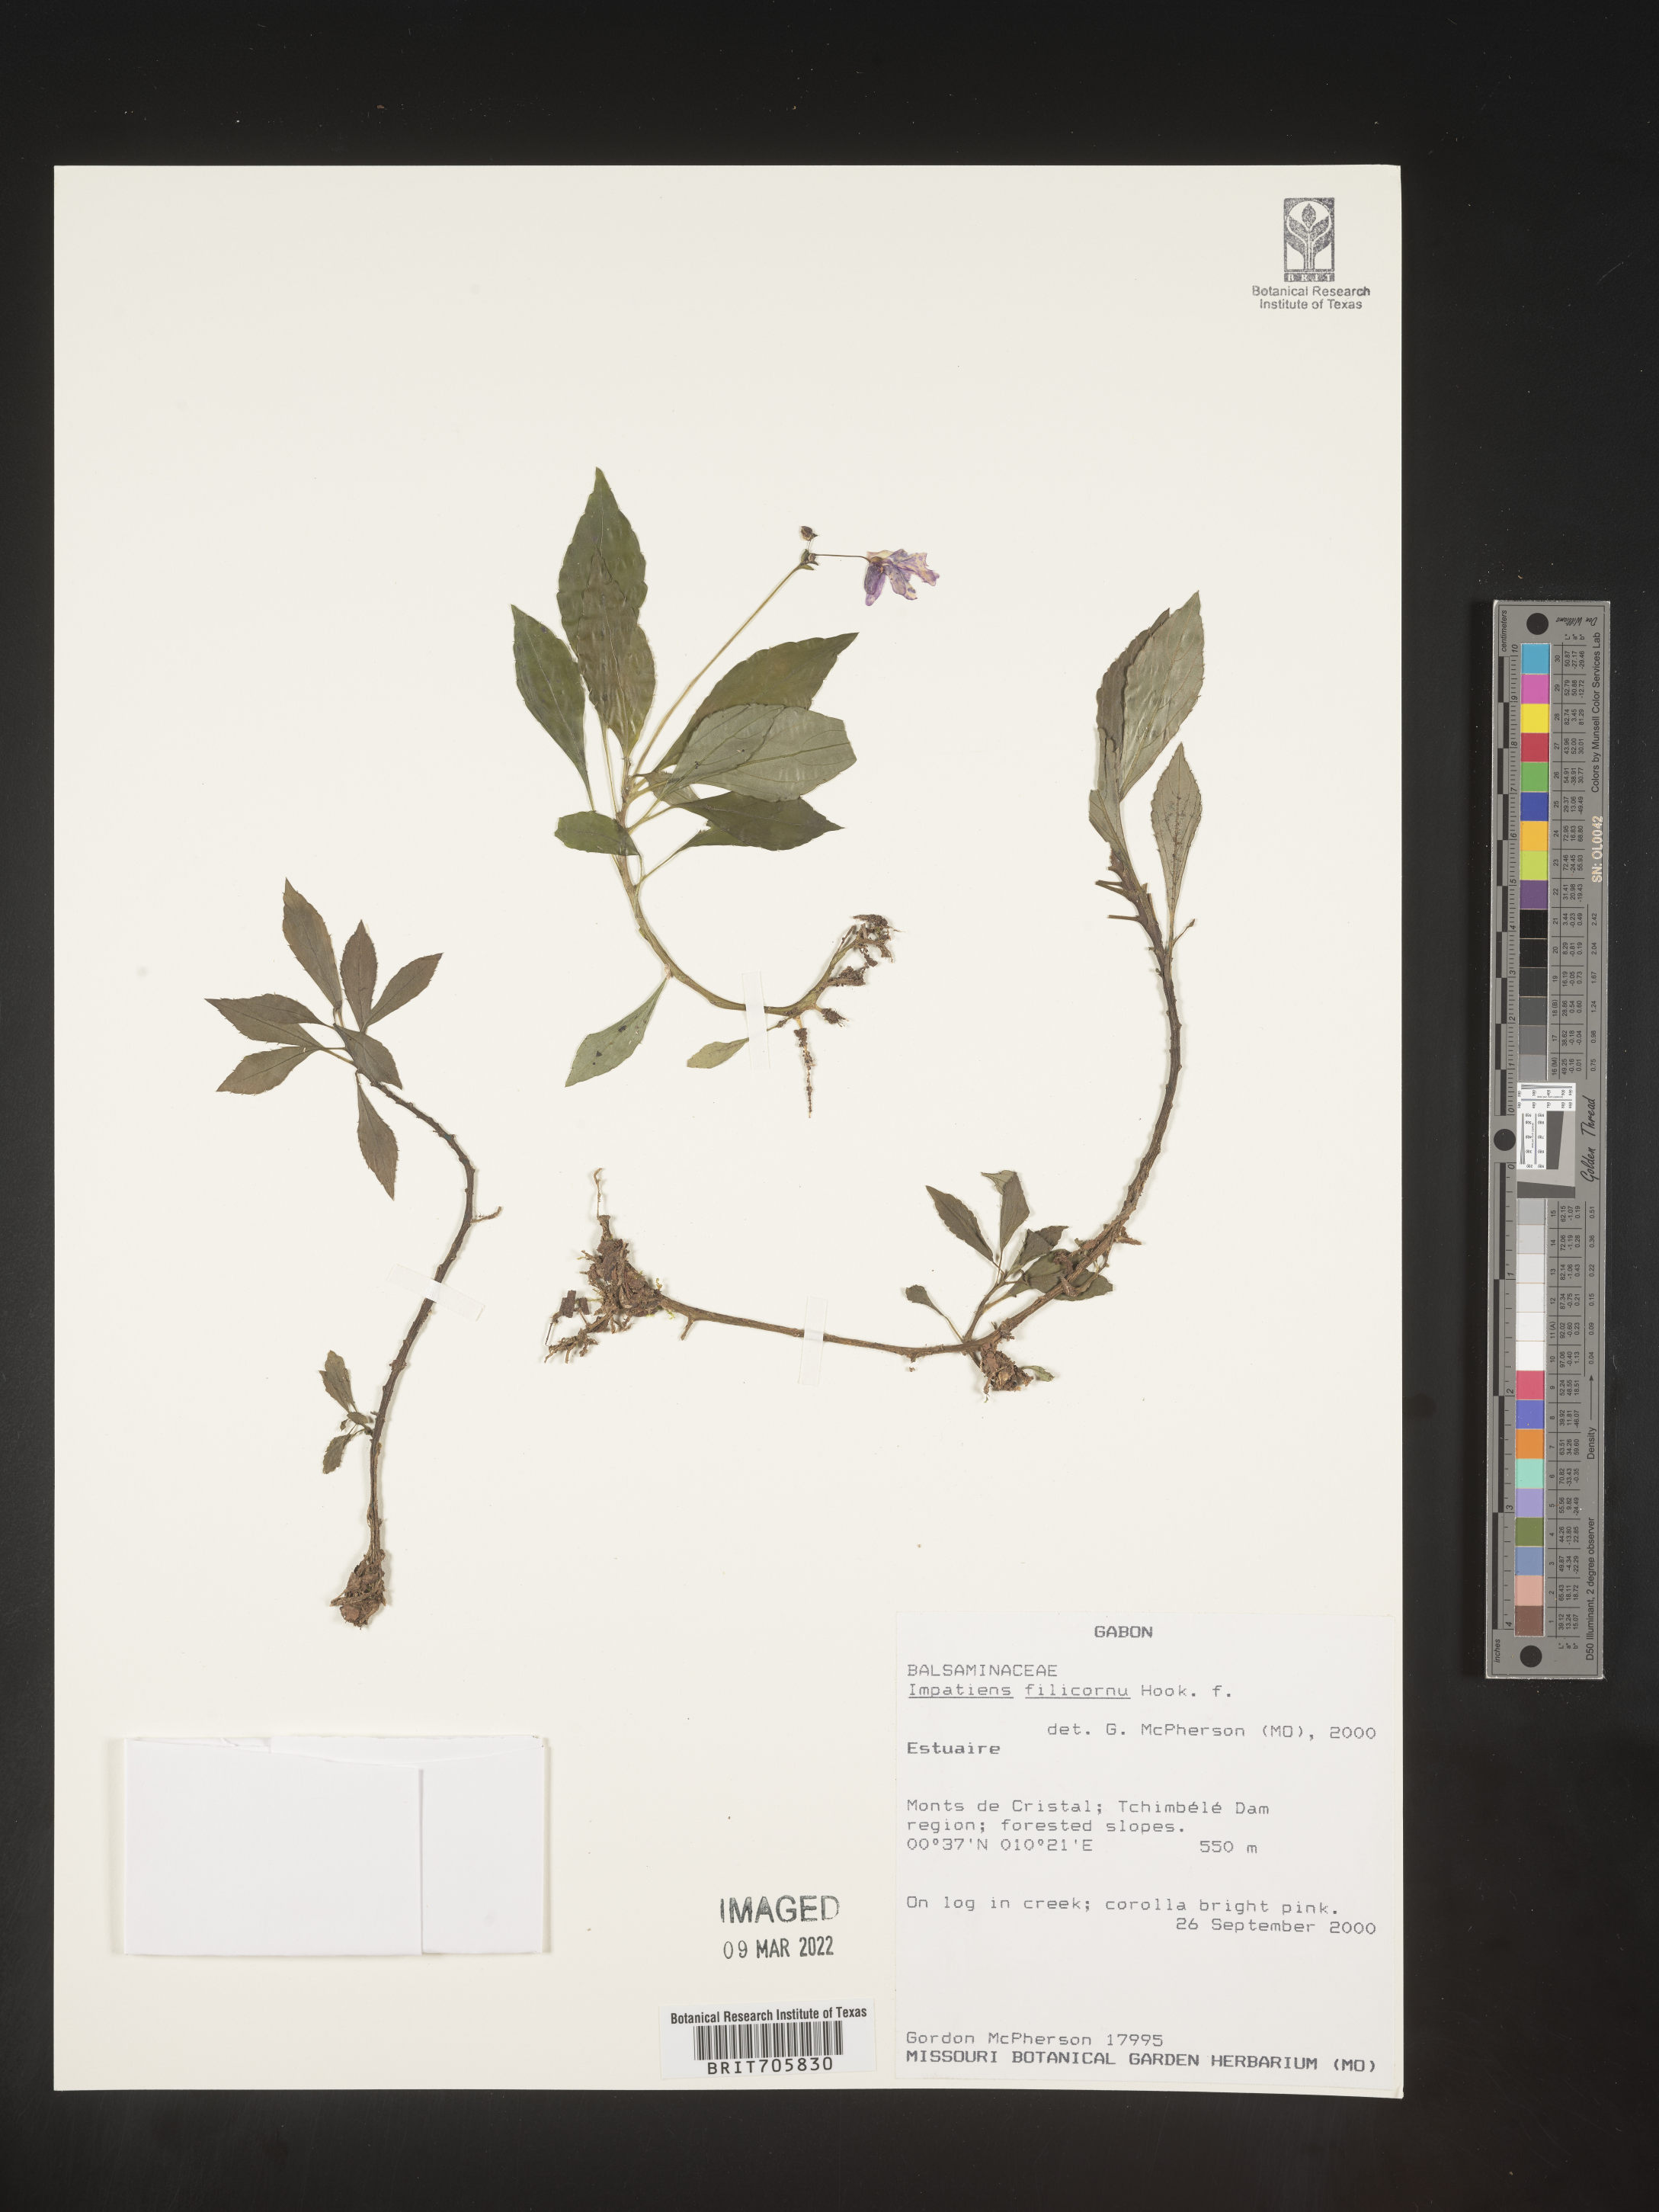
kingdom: Plantae
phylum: Tracheophyta
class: Magnoliopsida
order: Ericales
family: Balsaminaceae
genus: Impatiens
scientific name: Impatiens
